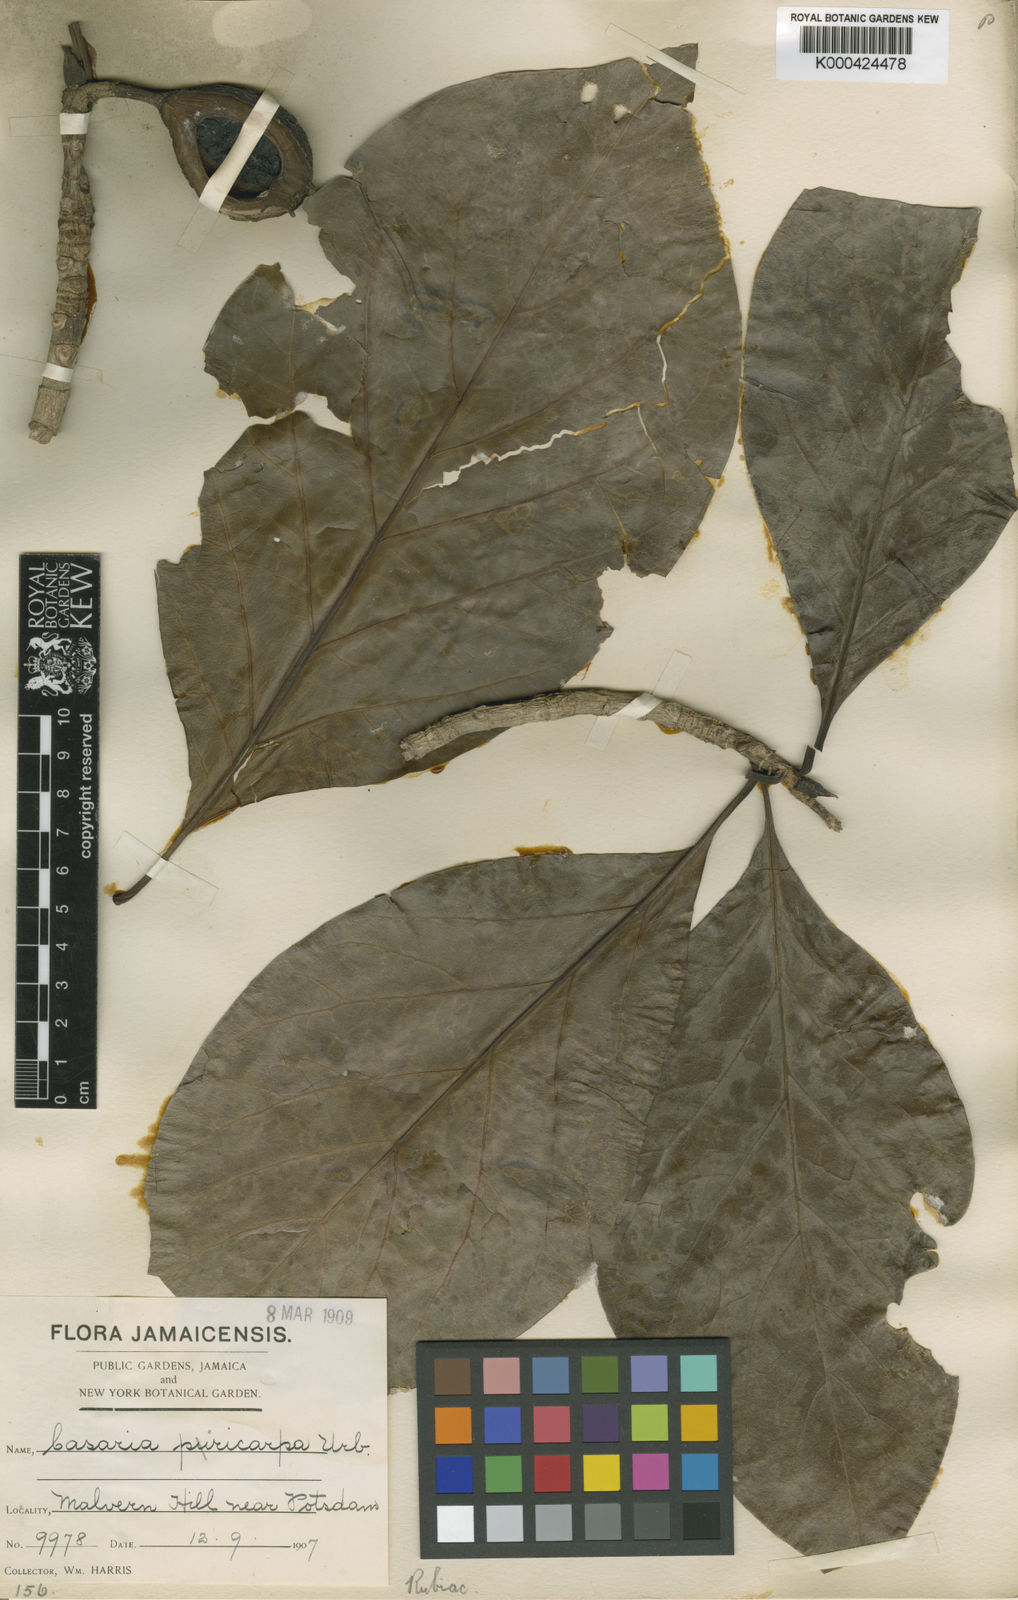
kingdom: Plantae
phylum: Tracheophyta
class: Magnoliopsida
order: Gentianales
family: Rubiaceae
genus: Casasia
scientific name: Casasia longipes
